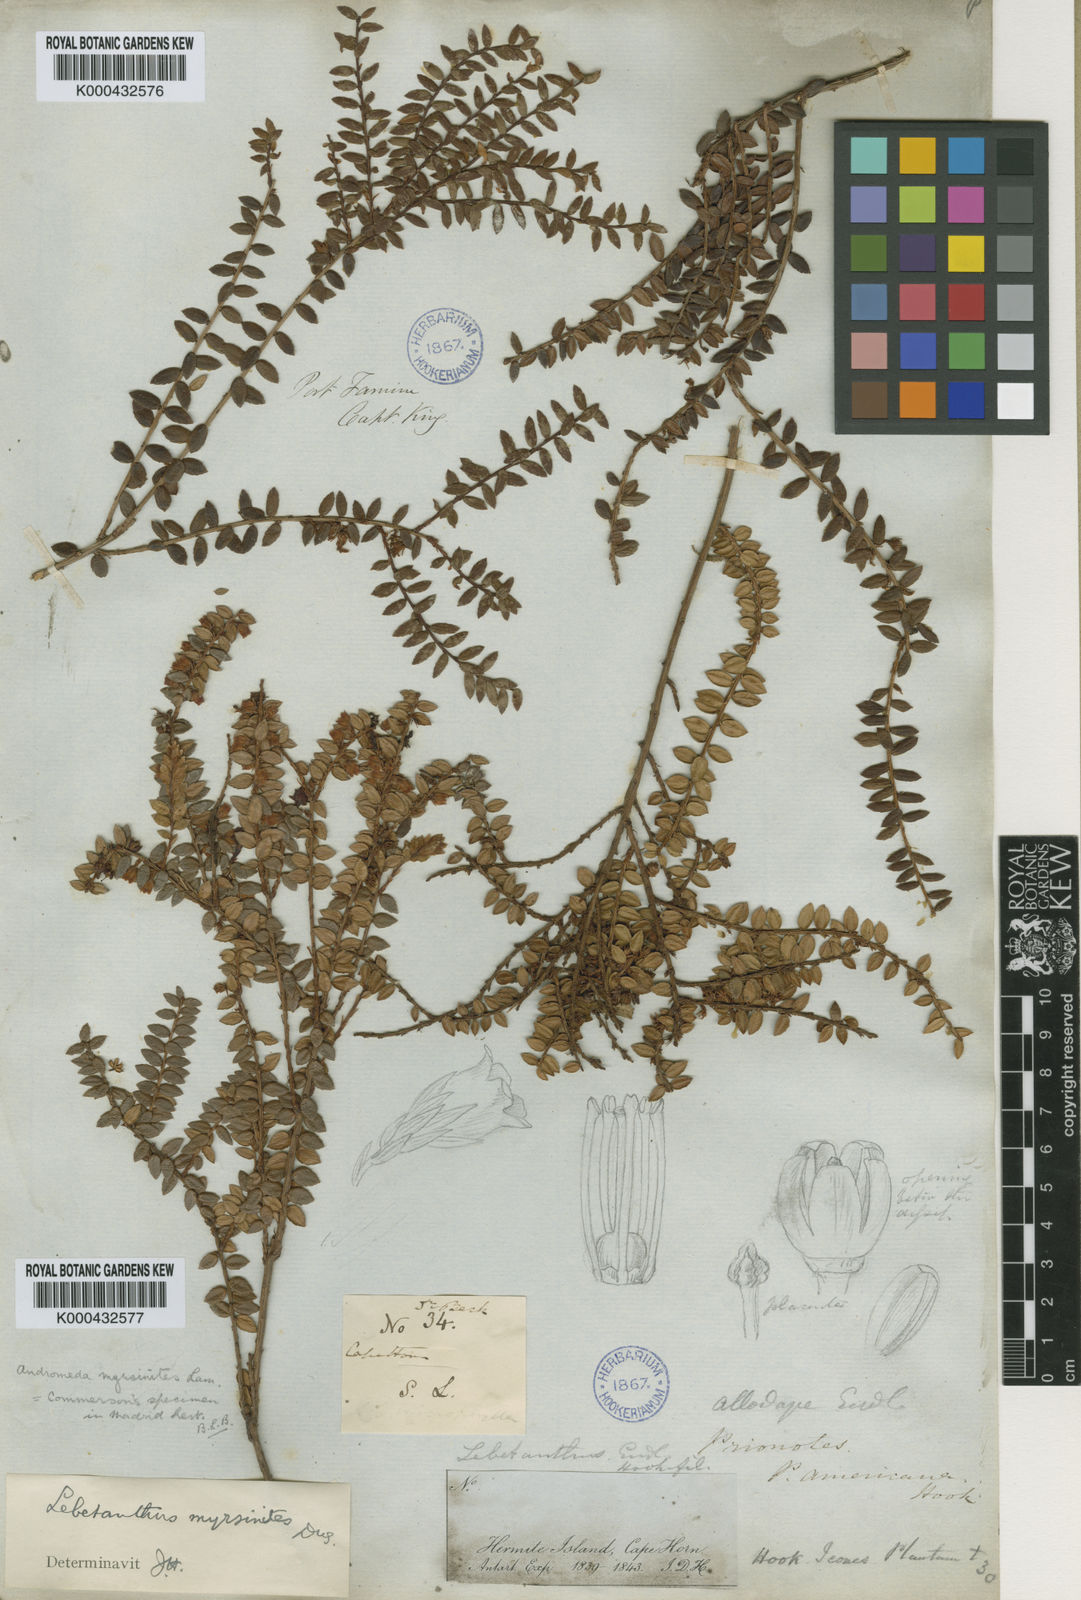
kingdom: Plantae
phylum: Tracheophyta
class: Magnoliopsida
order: Ericales
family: Ericaceae
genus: Lebetanthus
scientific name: Lebetanthus
